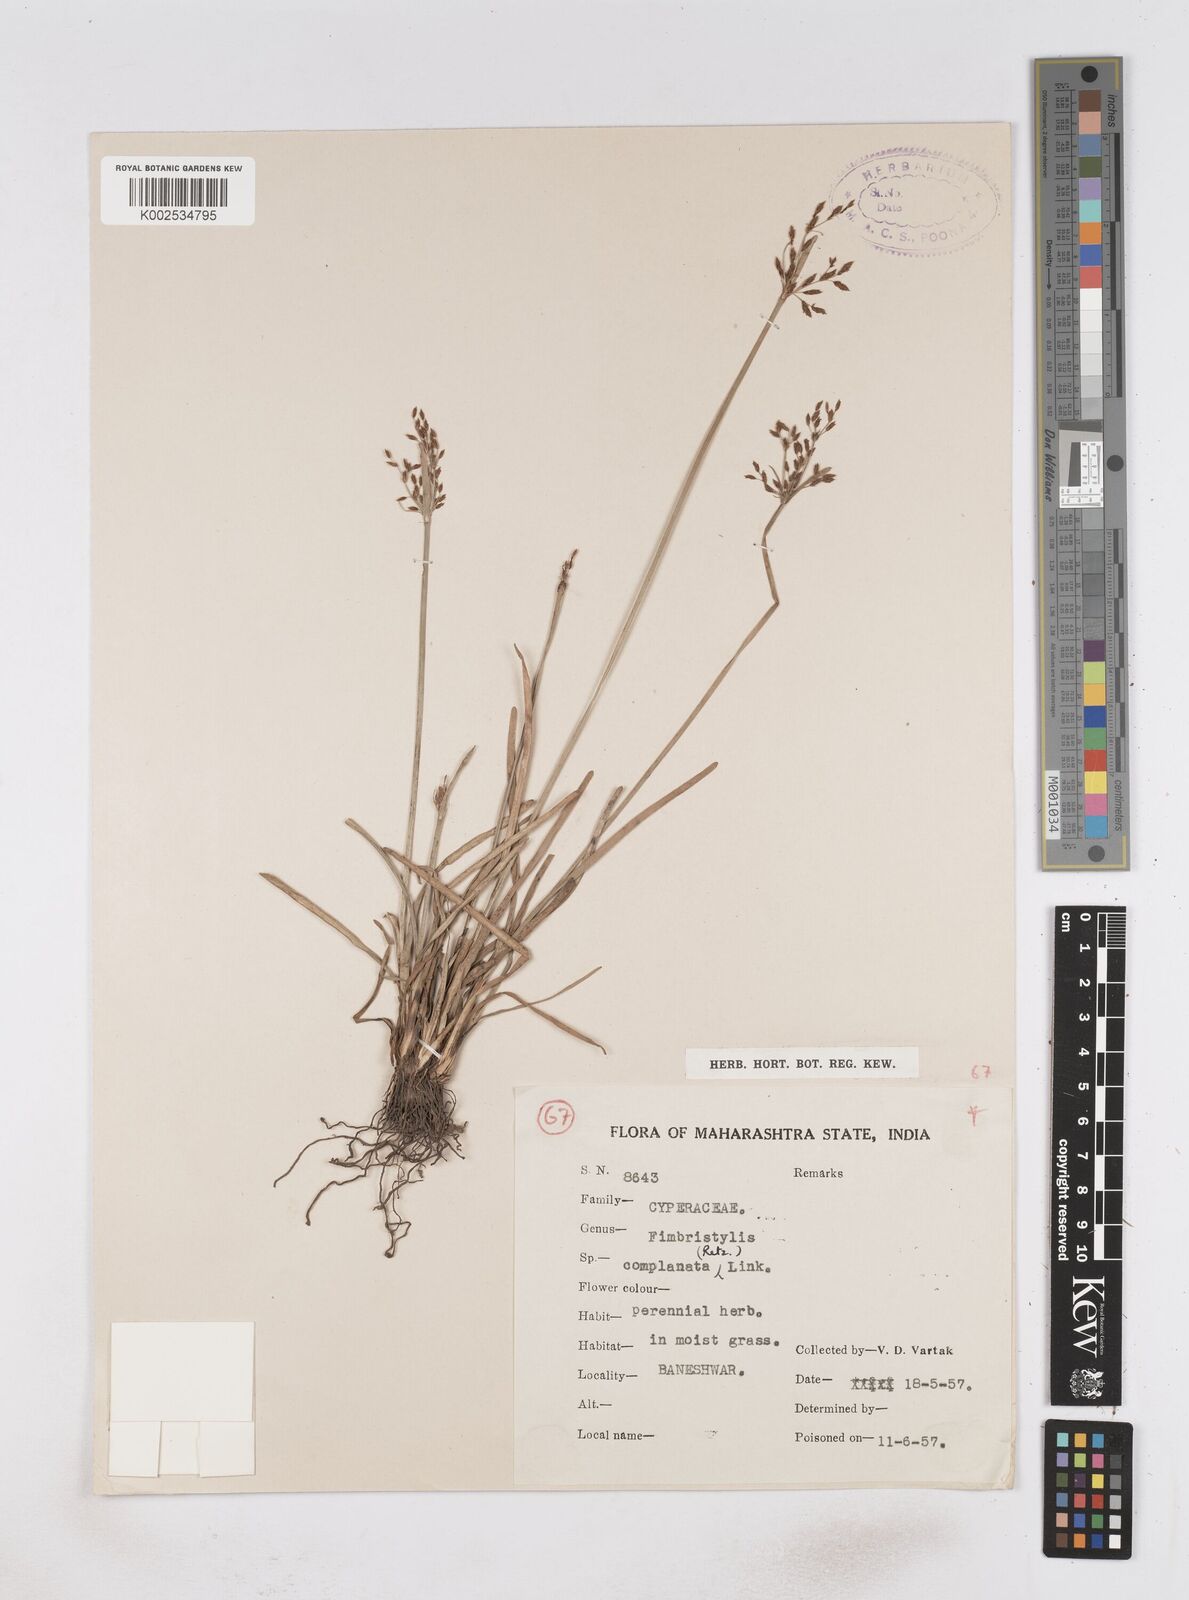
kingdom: Plantae
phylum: Tracheophyta
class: Liliopsida
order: Poales
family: Cyperaceae
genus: Fimbristylis
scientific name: Fimbristylis complanata
